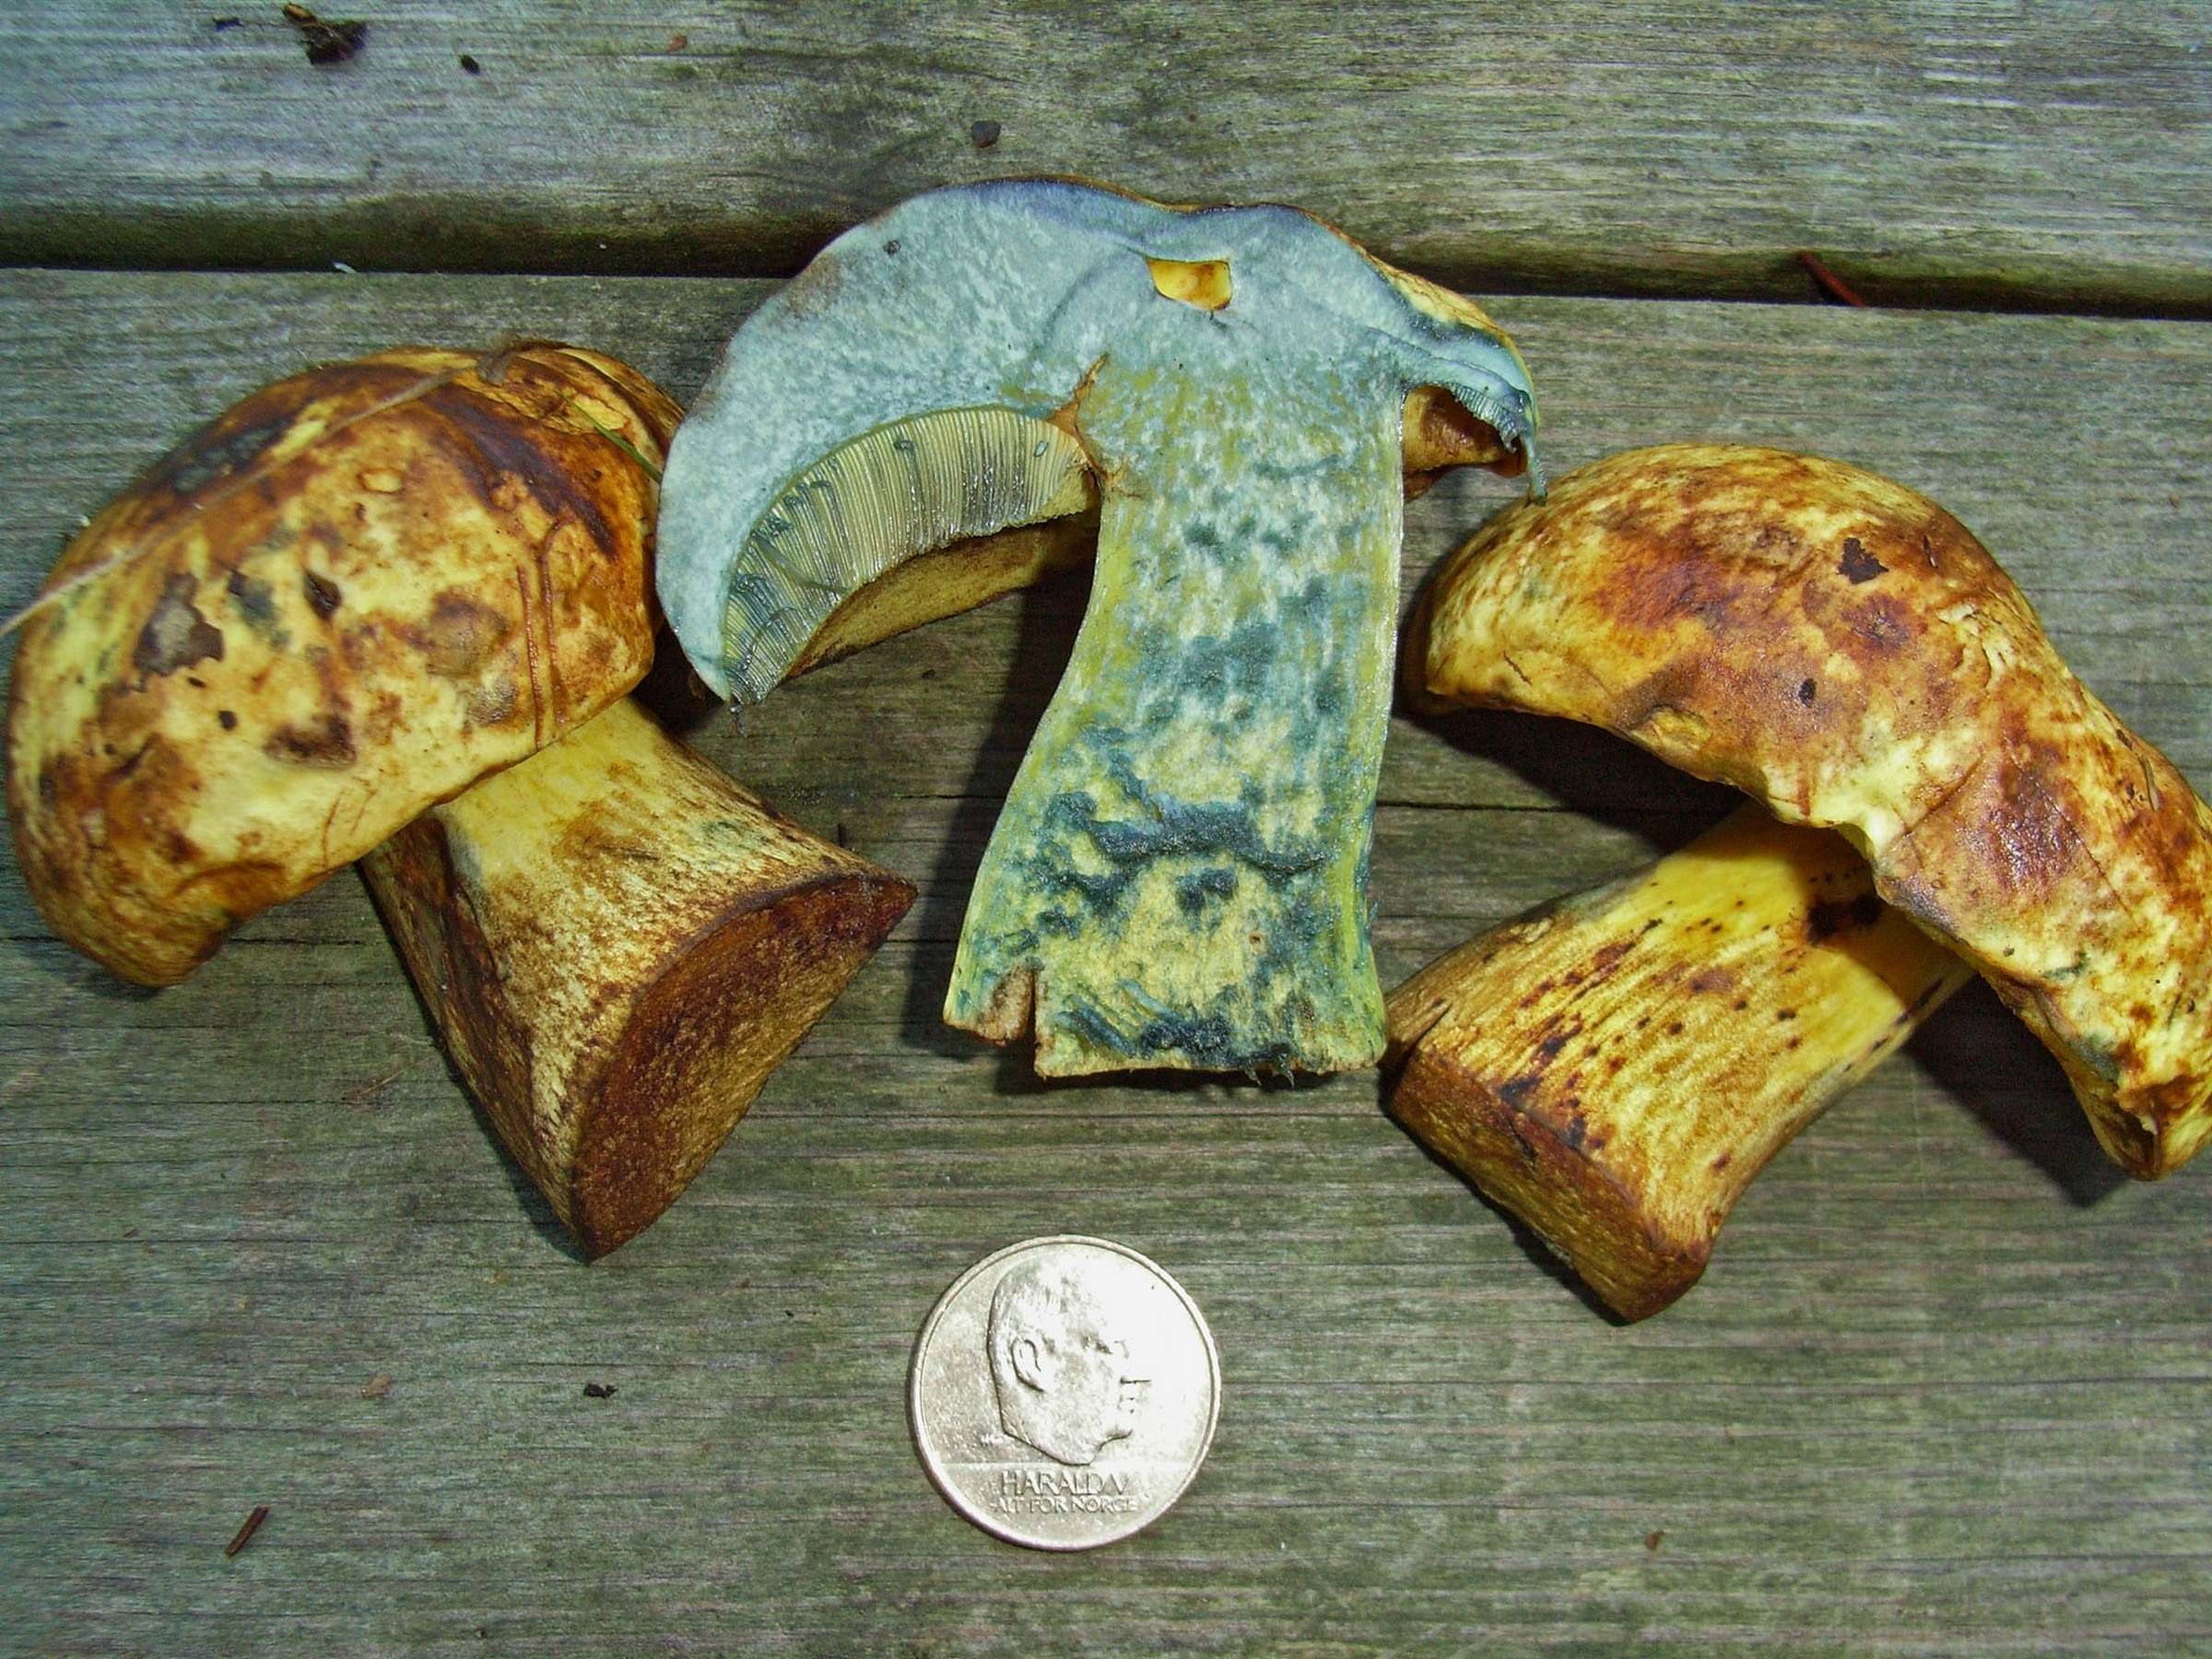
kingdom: Fungi
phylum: Basidiomycota
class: Agaricomycetes
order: Boletales
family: Boletaceae
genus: Neoboletus
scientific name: Neoboletus praestigiator
